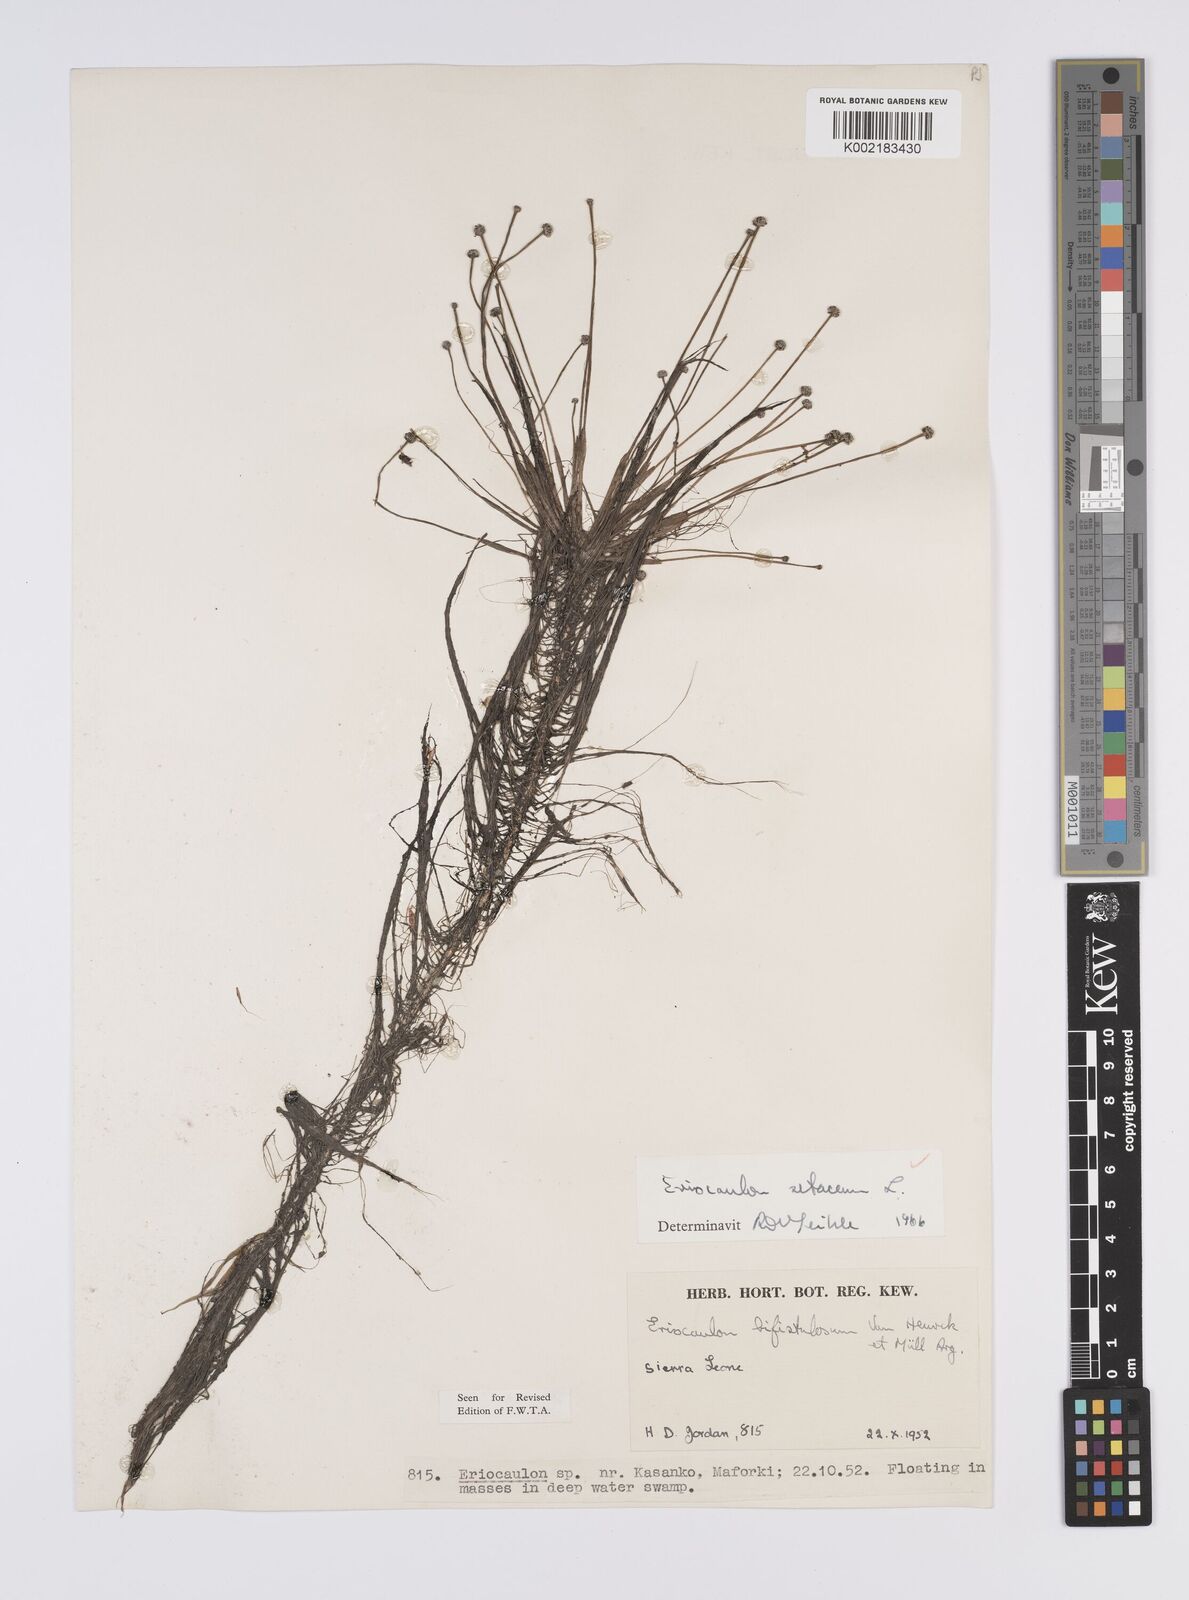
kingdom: Plantae
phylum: Tracheophyta
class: Liliopsida
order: Poales
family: Eriocaulaceae
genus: Eriocaulon
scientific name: Eriocaulon setaceum
